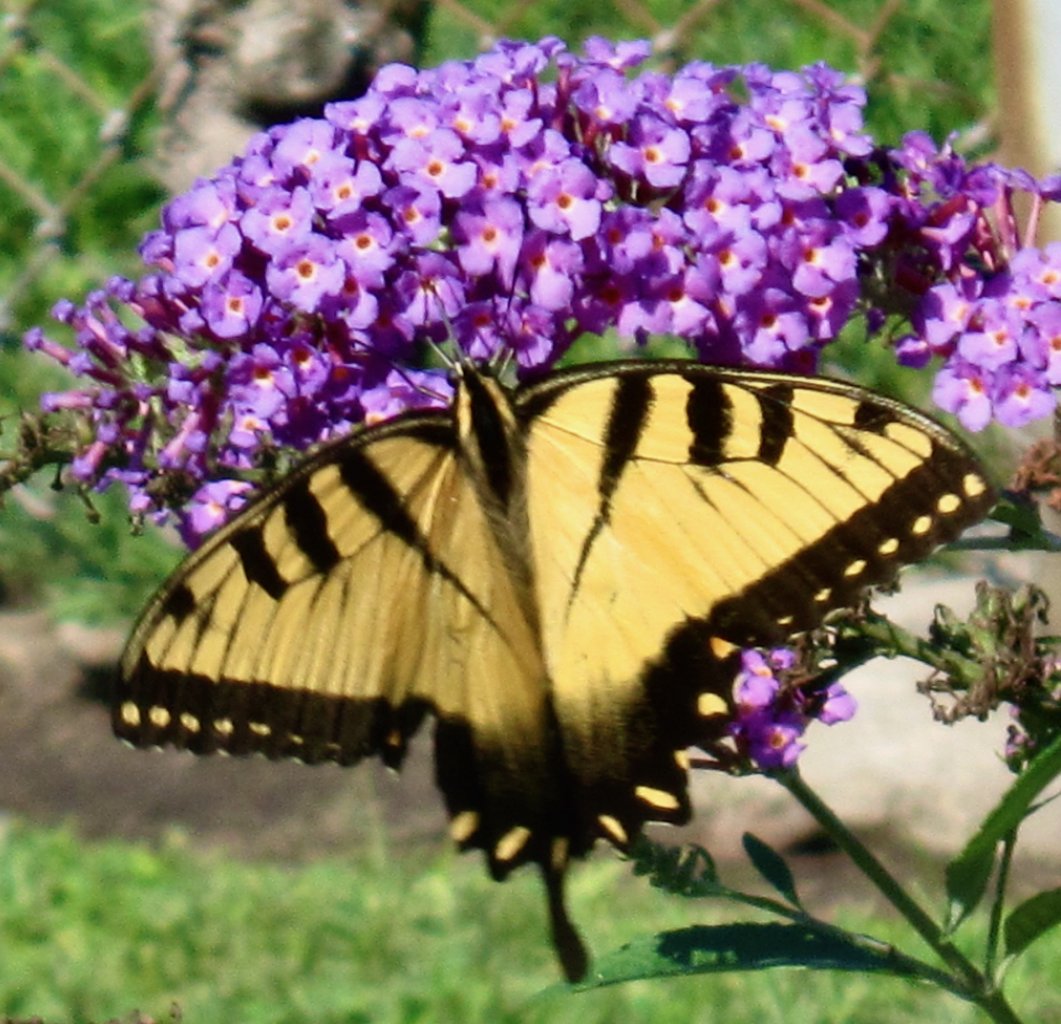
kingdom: Animalia
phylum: Arthropoda
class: Insecta
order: Lepidoptera
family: Papilionidae
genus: Pterourus
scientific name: Pterourus glaucus
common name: Eastern Tiger Swallowtail
